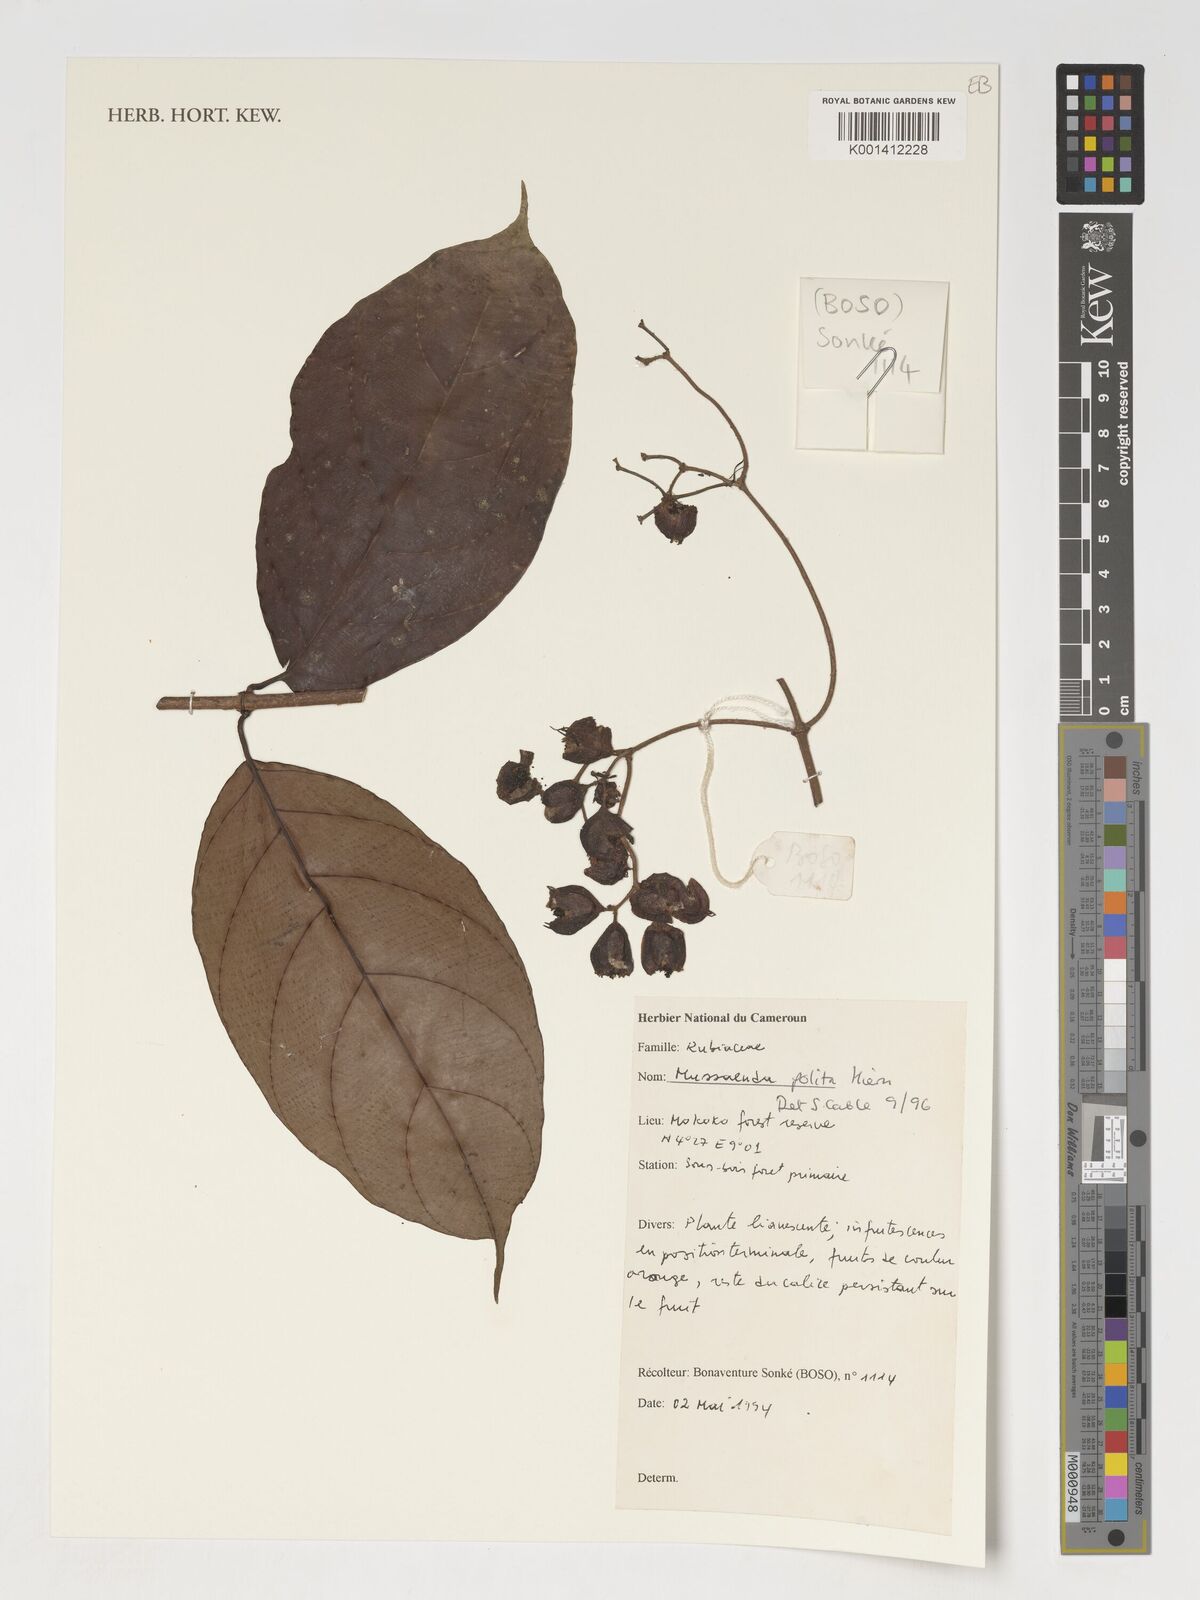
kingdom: Plantae
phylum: Tracheophyta
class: Magnoliopsida
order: Gentianales
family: Rubiaceae
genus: Mussaenda
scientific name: Mussaenda polita
